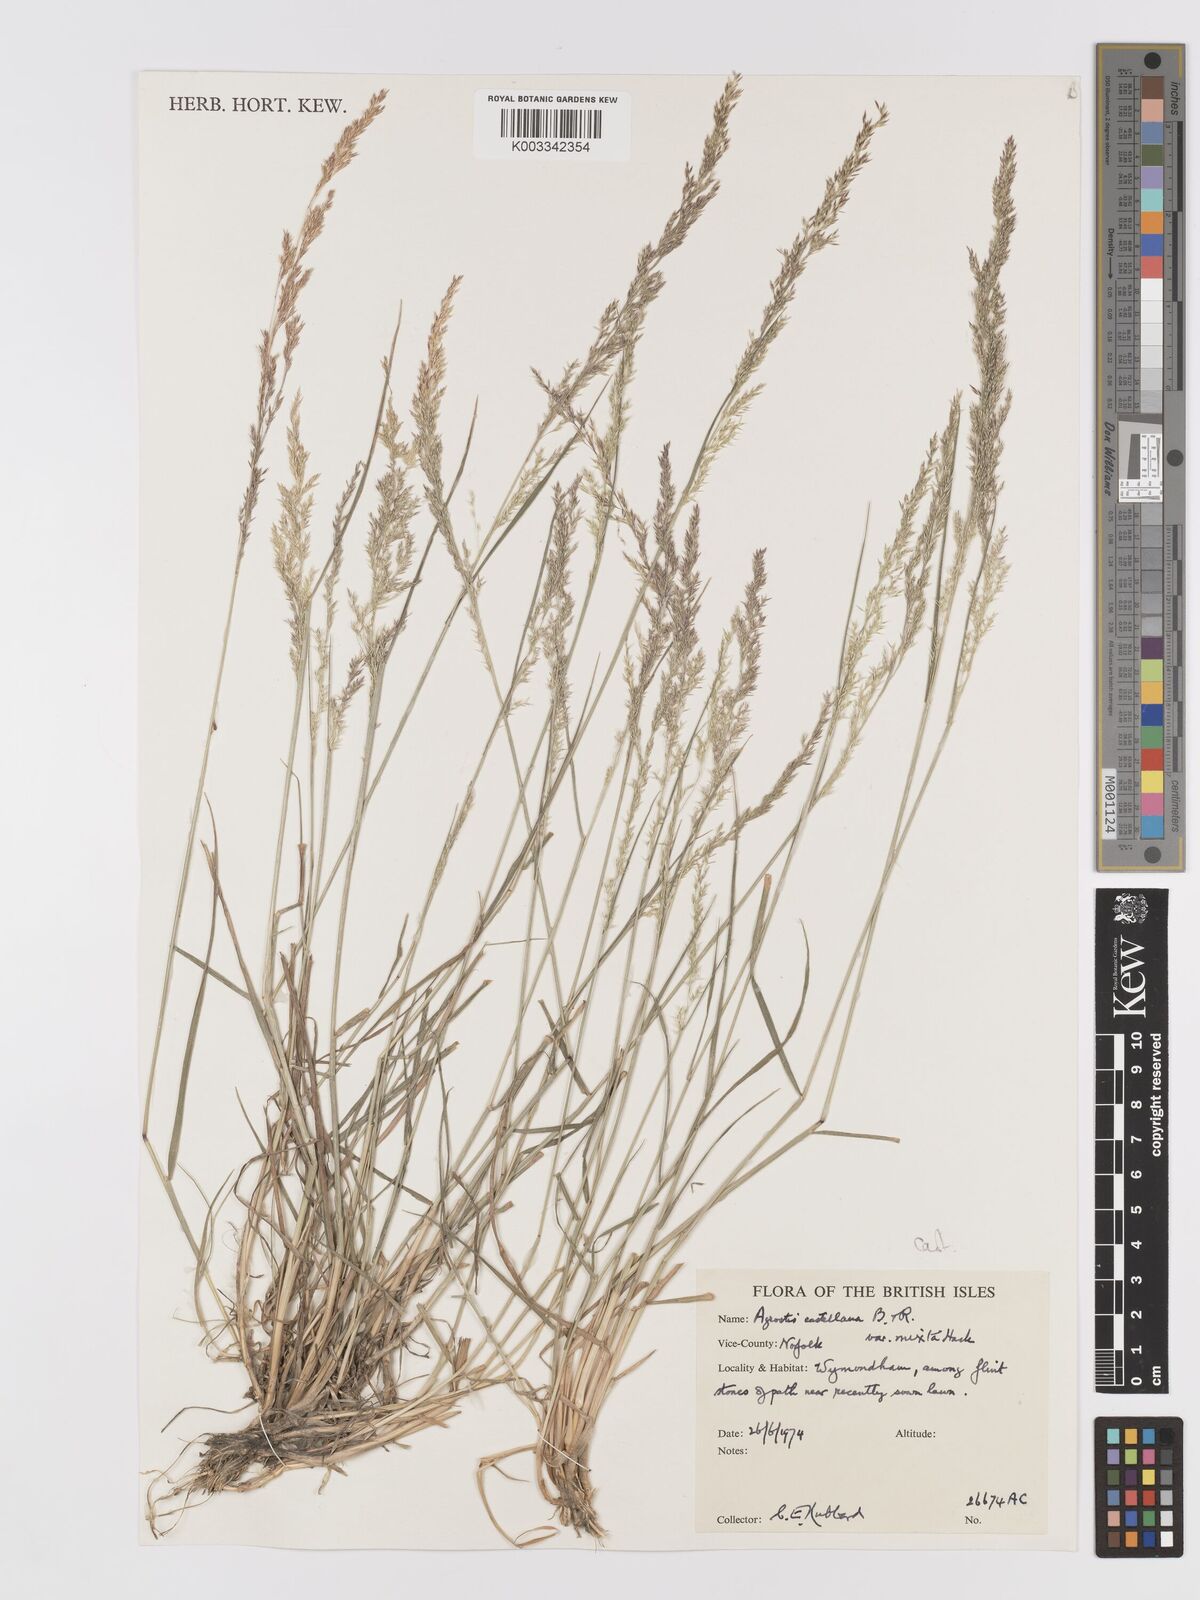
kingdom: Plantae
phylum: Tracheophyta
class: Liliopsida
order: Poales
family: Poaceae
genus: Agrostis
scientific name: Agrostis castellana
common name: Highland bent
